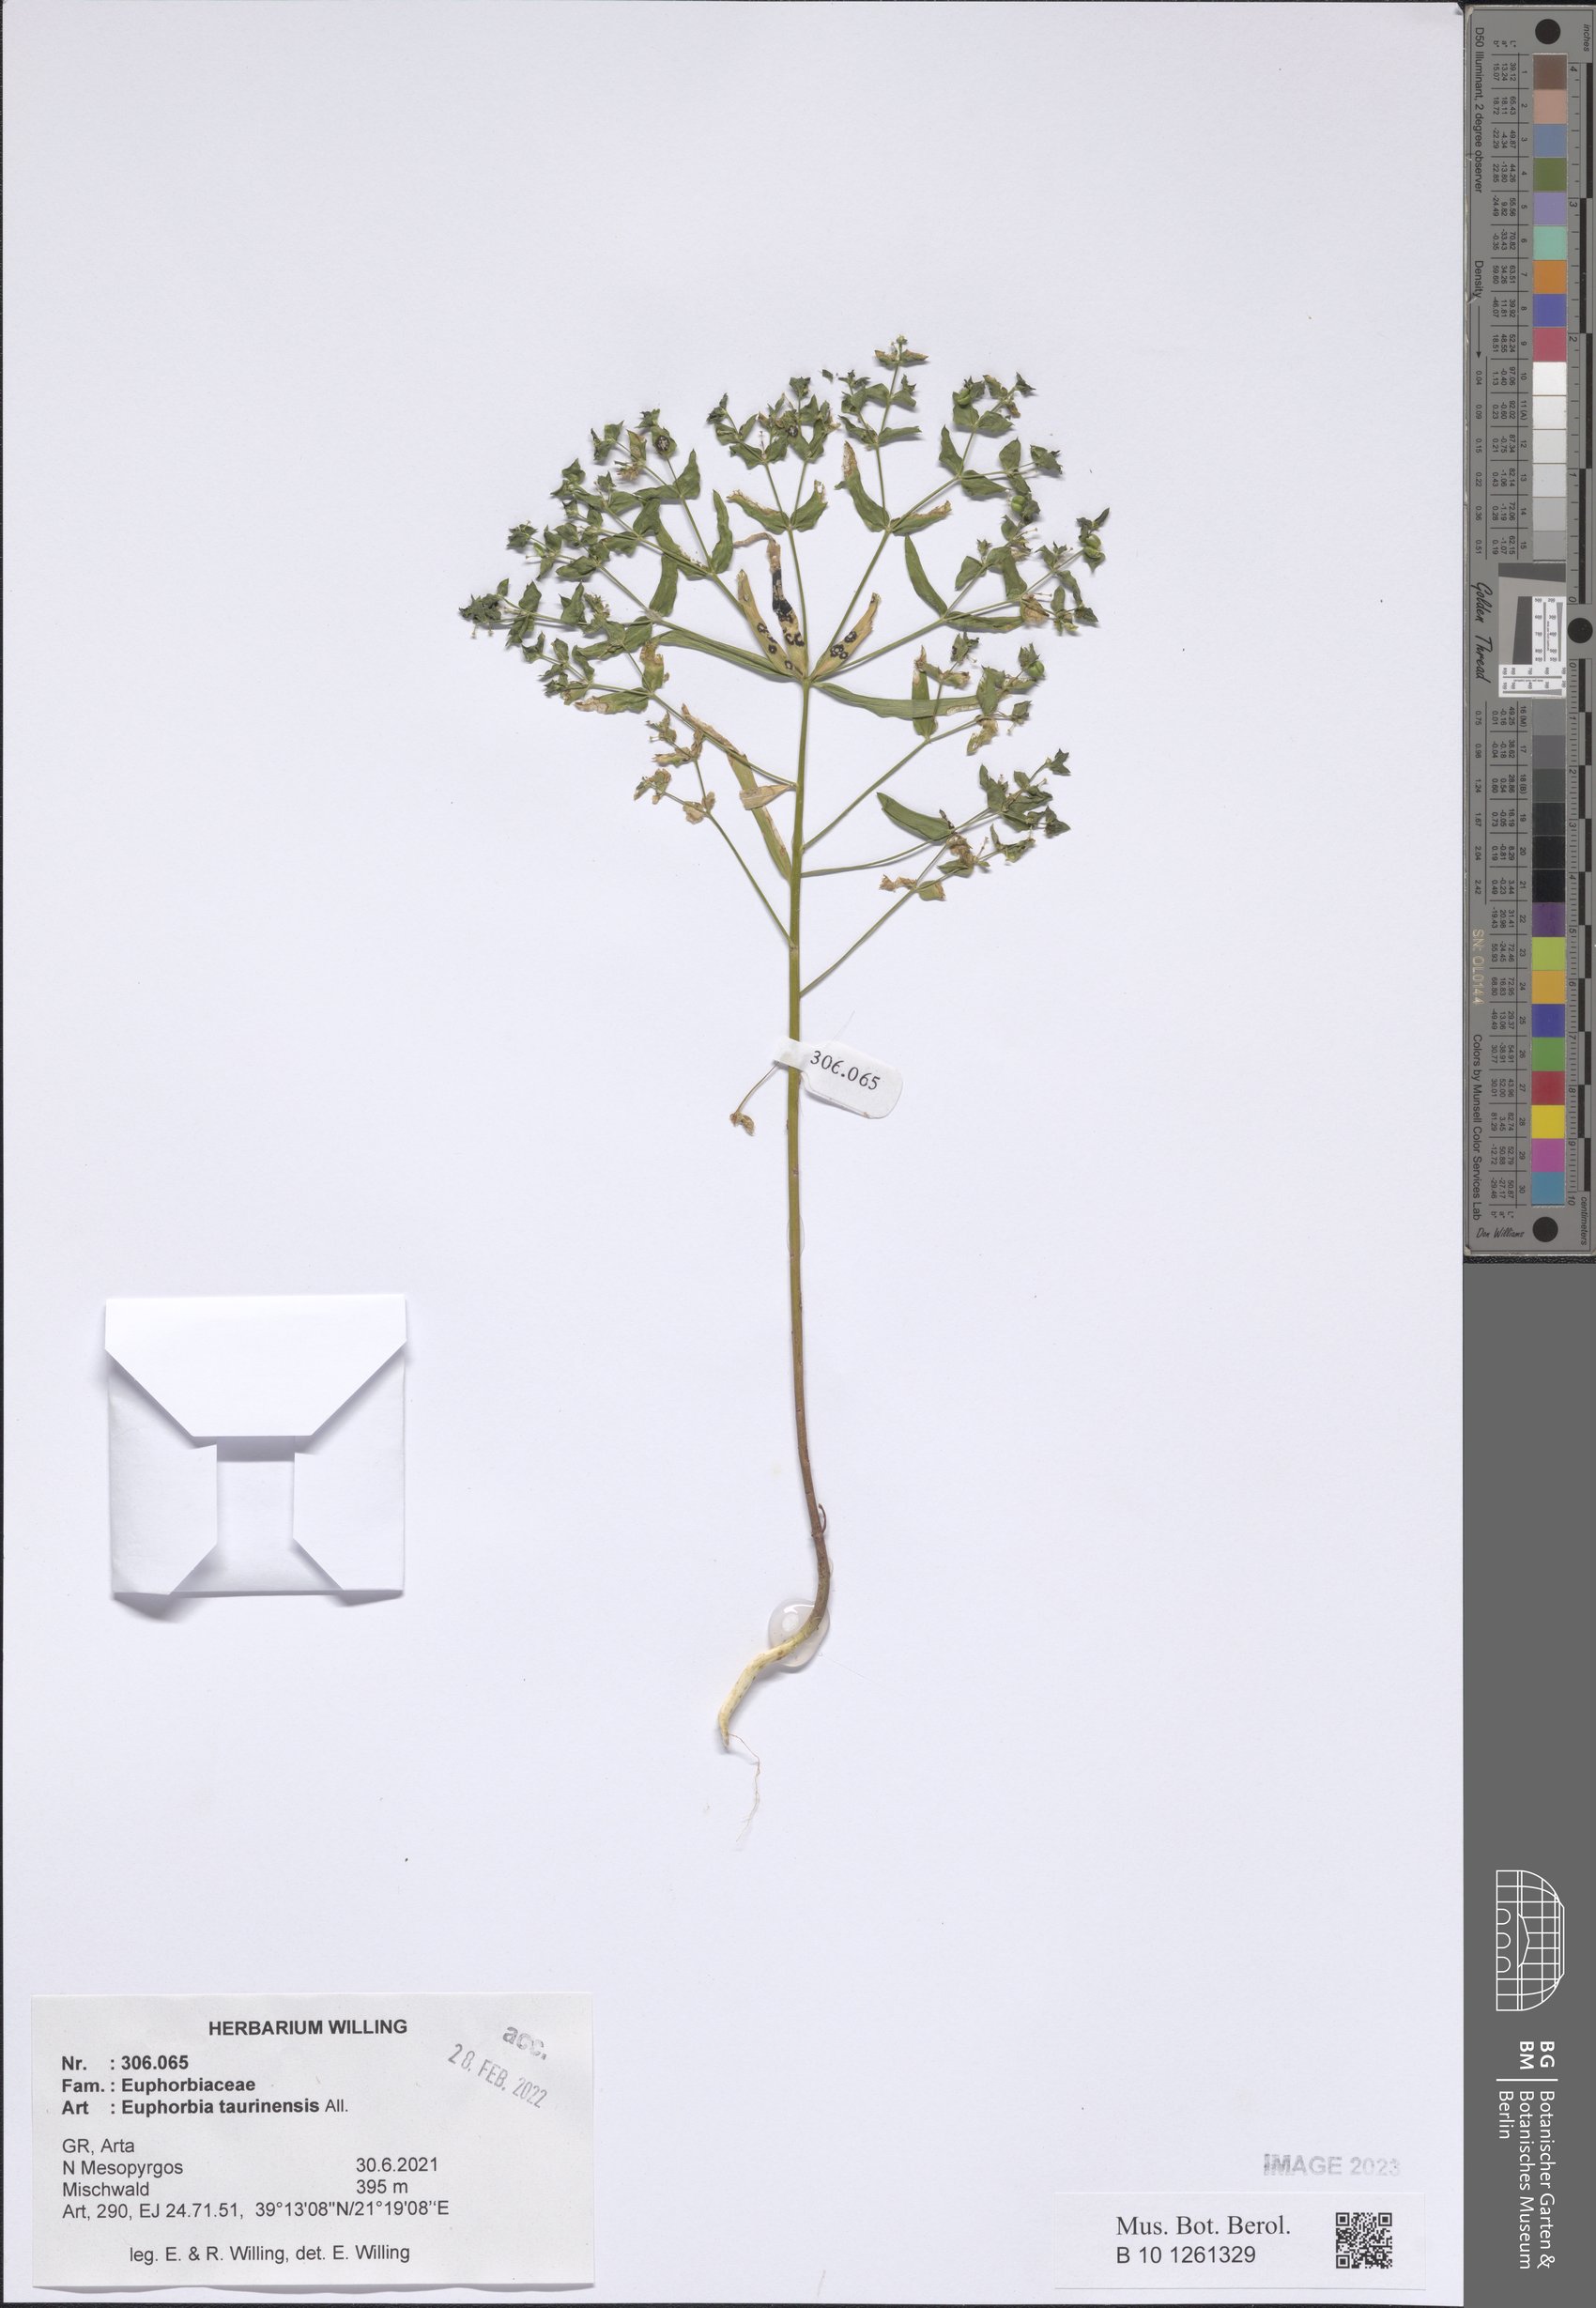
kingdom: Plantae
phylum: Tracheophyta
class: Magnoliopsida
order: Malpighiales
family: Euphorbiaceae
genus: Euphorbia
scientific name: Euphorbia taurinensis
